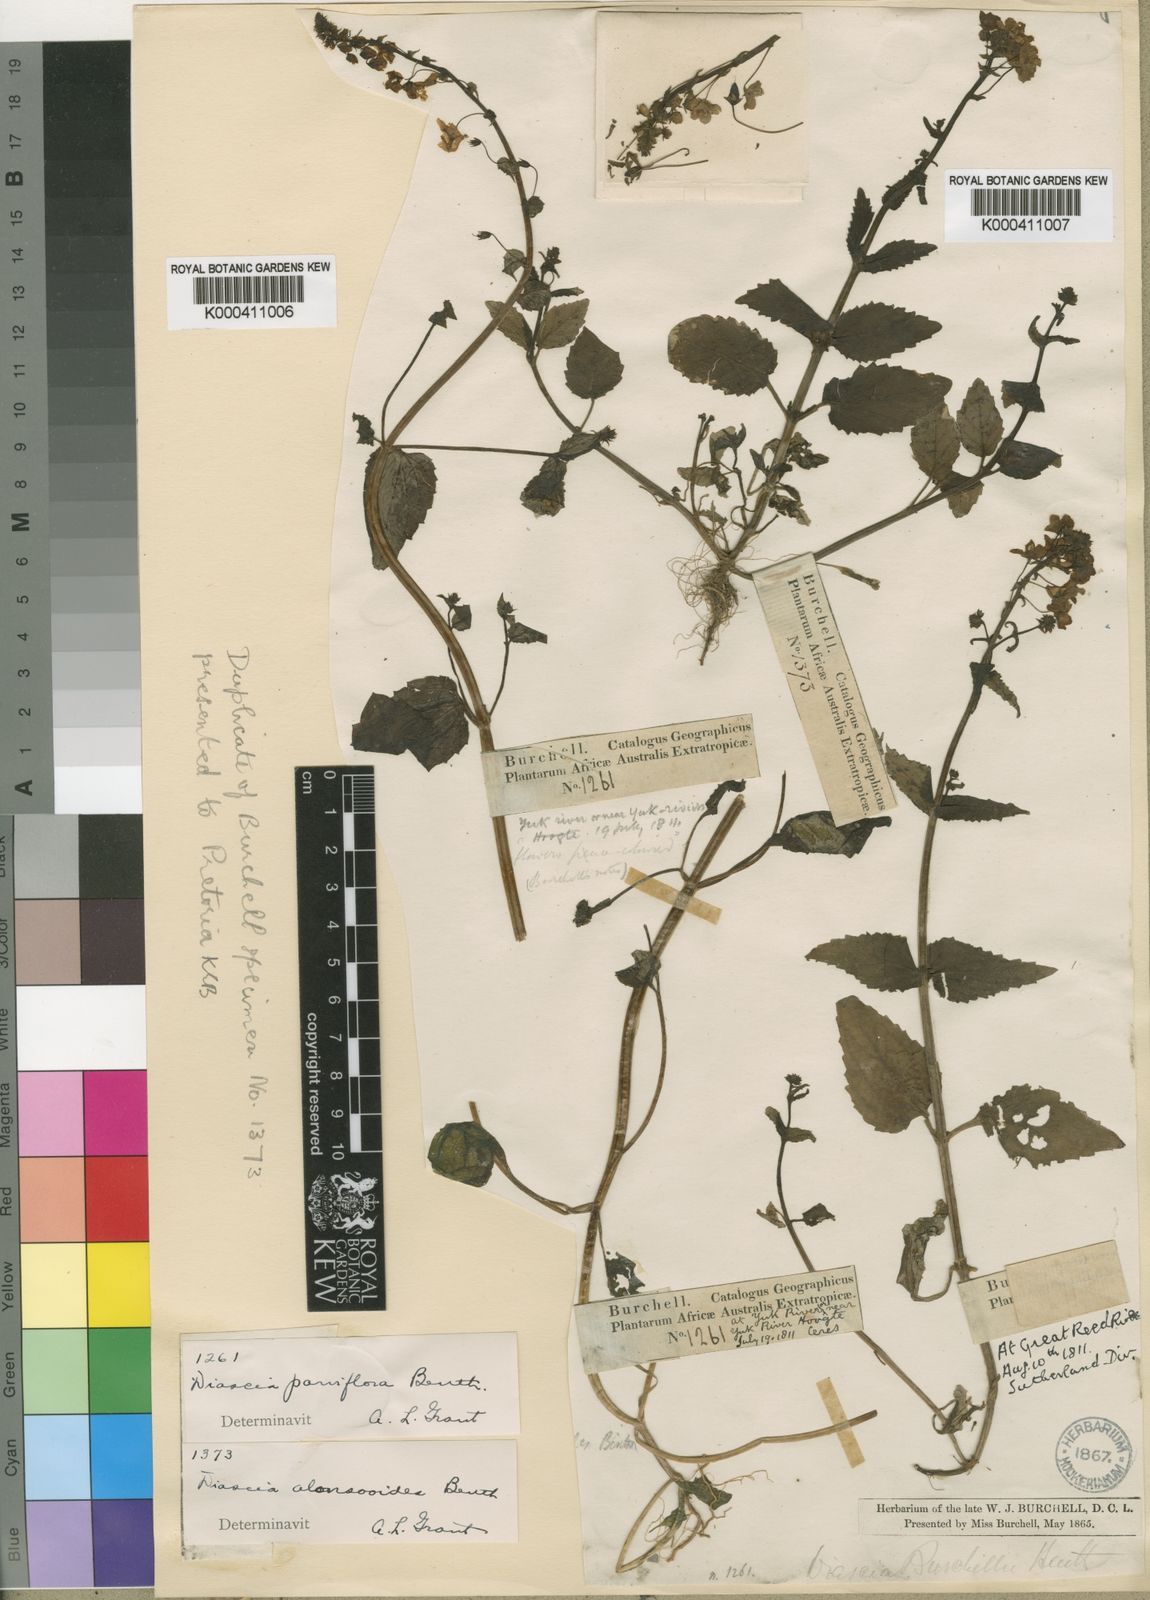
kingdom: Plantae
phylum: Tracheophyta
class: Magnoliopsida
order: Lamiales
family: Scrophulariaceae
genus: Diascia
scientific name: Diascia parviflora
